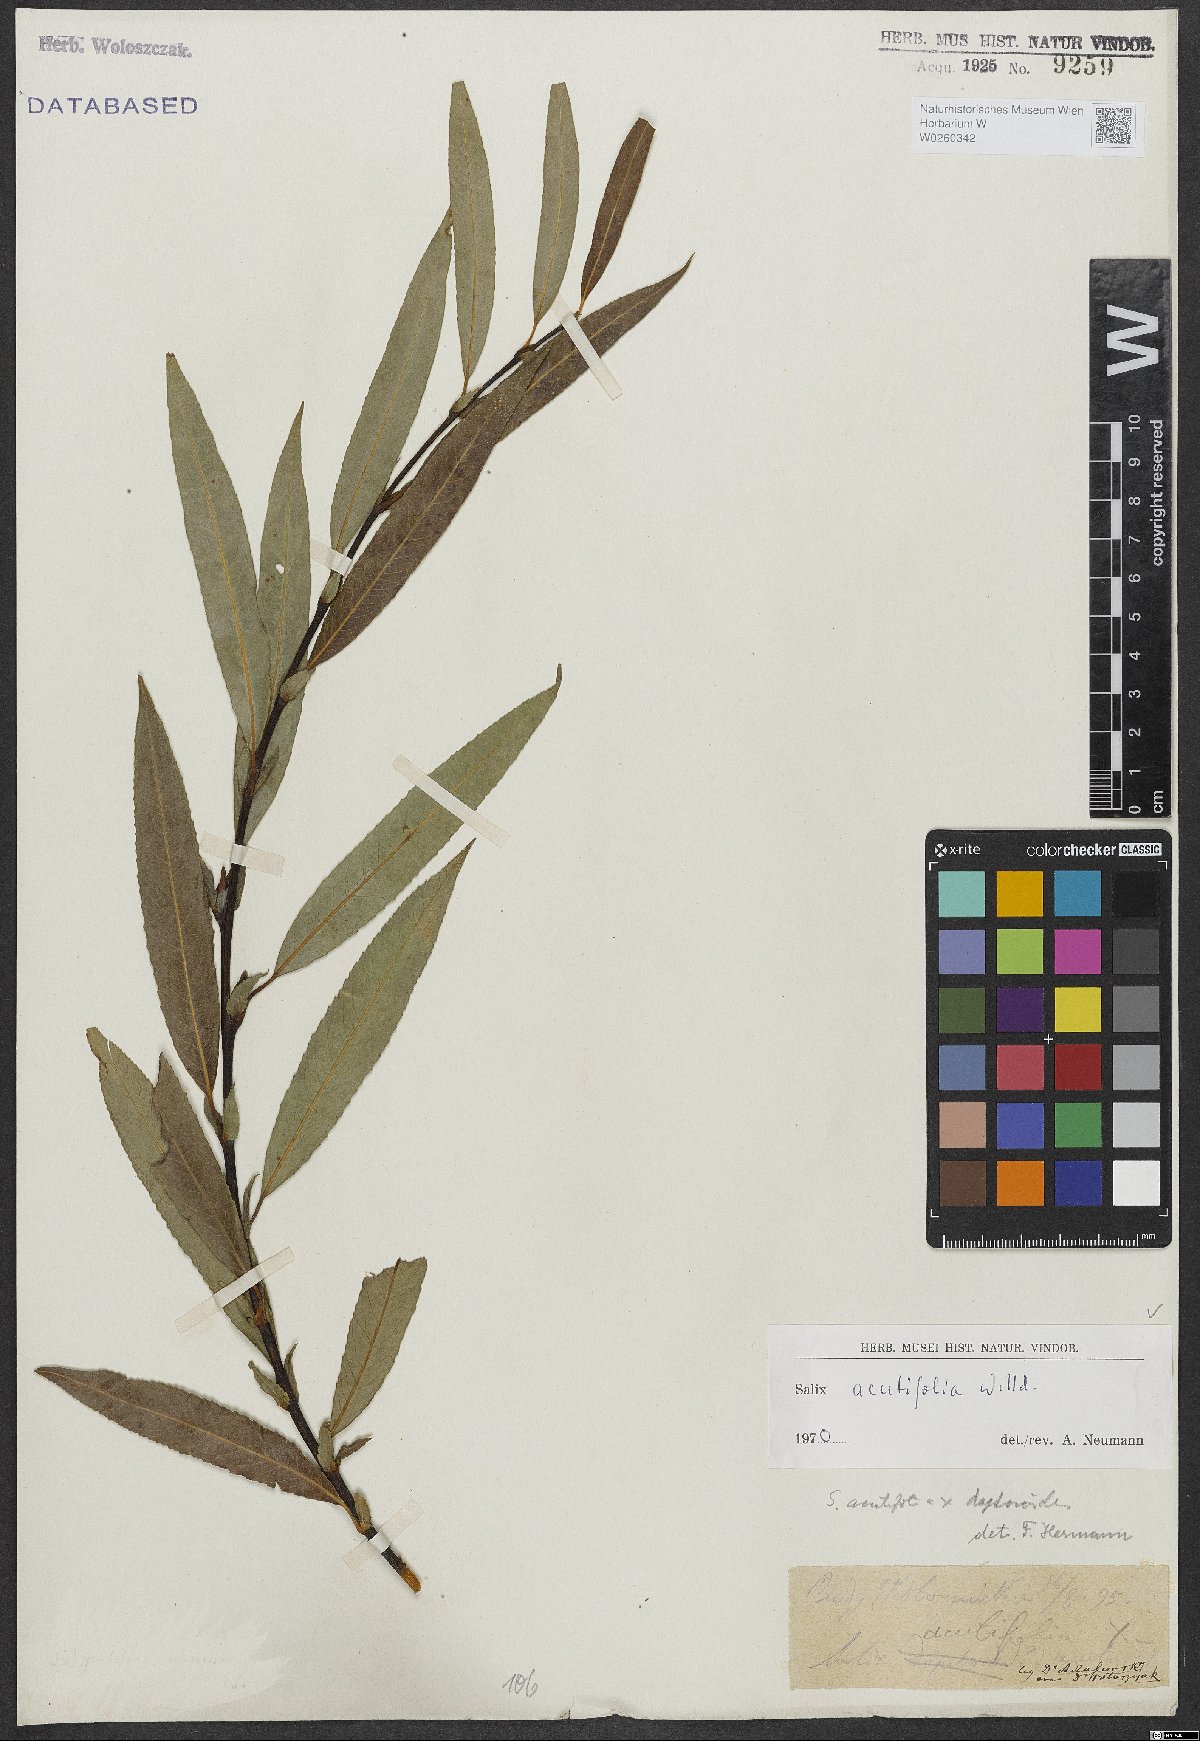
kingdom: Plantae
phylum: Tracheophyta
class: Magnoliopsida
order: Malpighiales
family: Salicaceae
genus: Salix
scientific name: Salix acutifolia
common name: Siberian violet-willow
